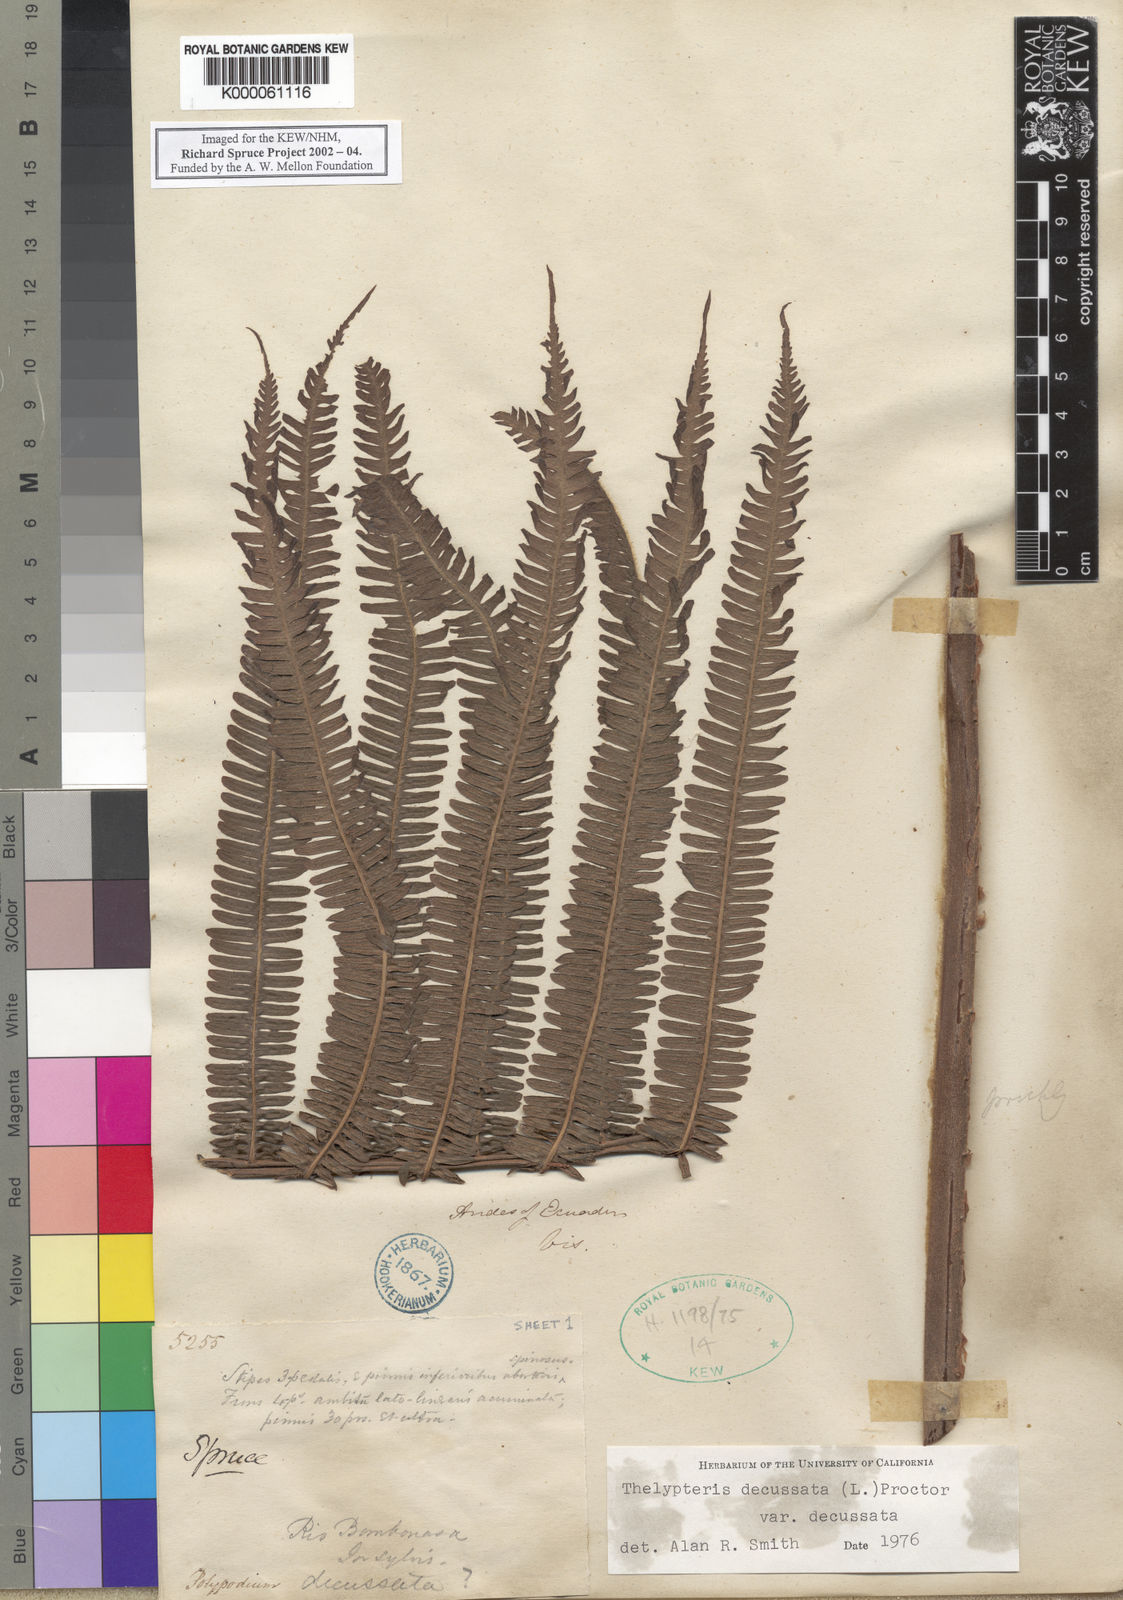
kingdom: Plantae
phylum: Tracheophyta
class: Polypodiopsida
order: Polypodiales
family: Thelypteridaceae
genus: Glaphyropteris
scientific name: Glaphyropteris
